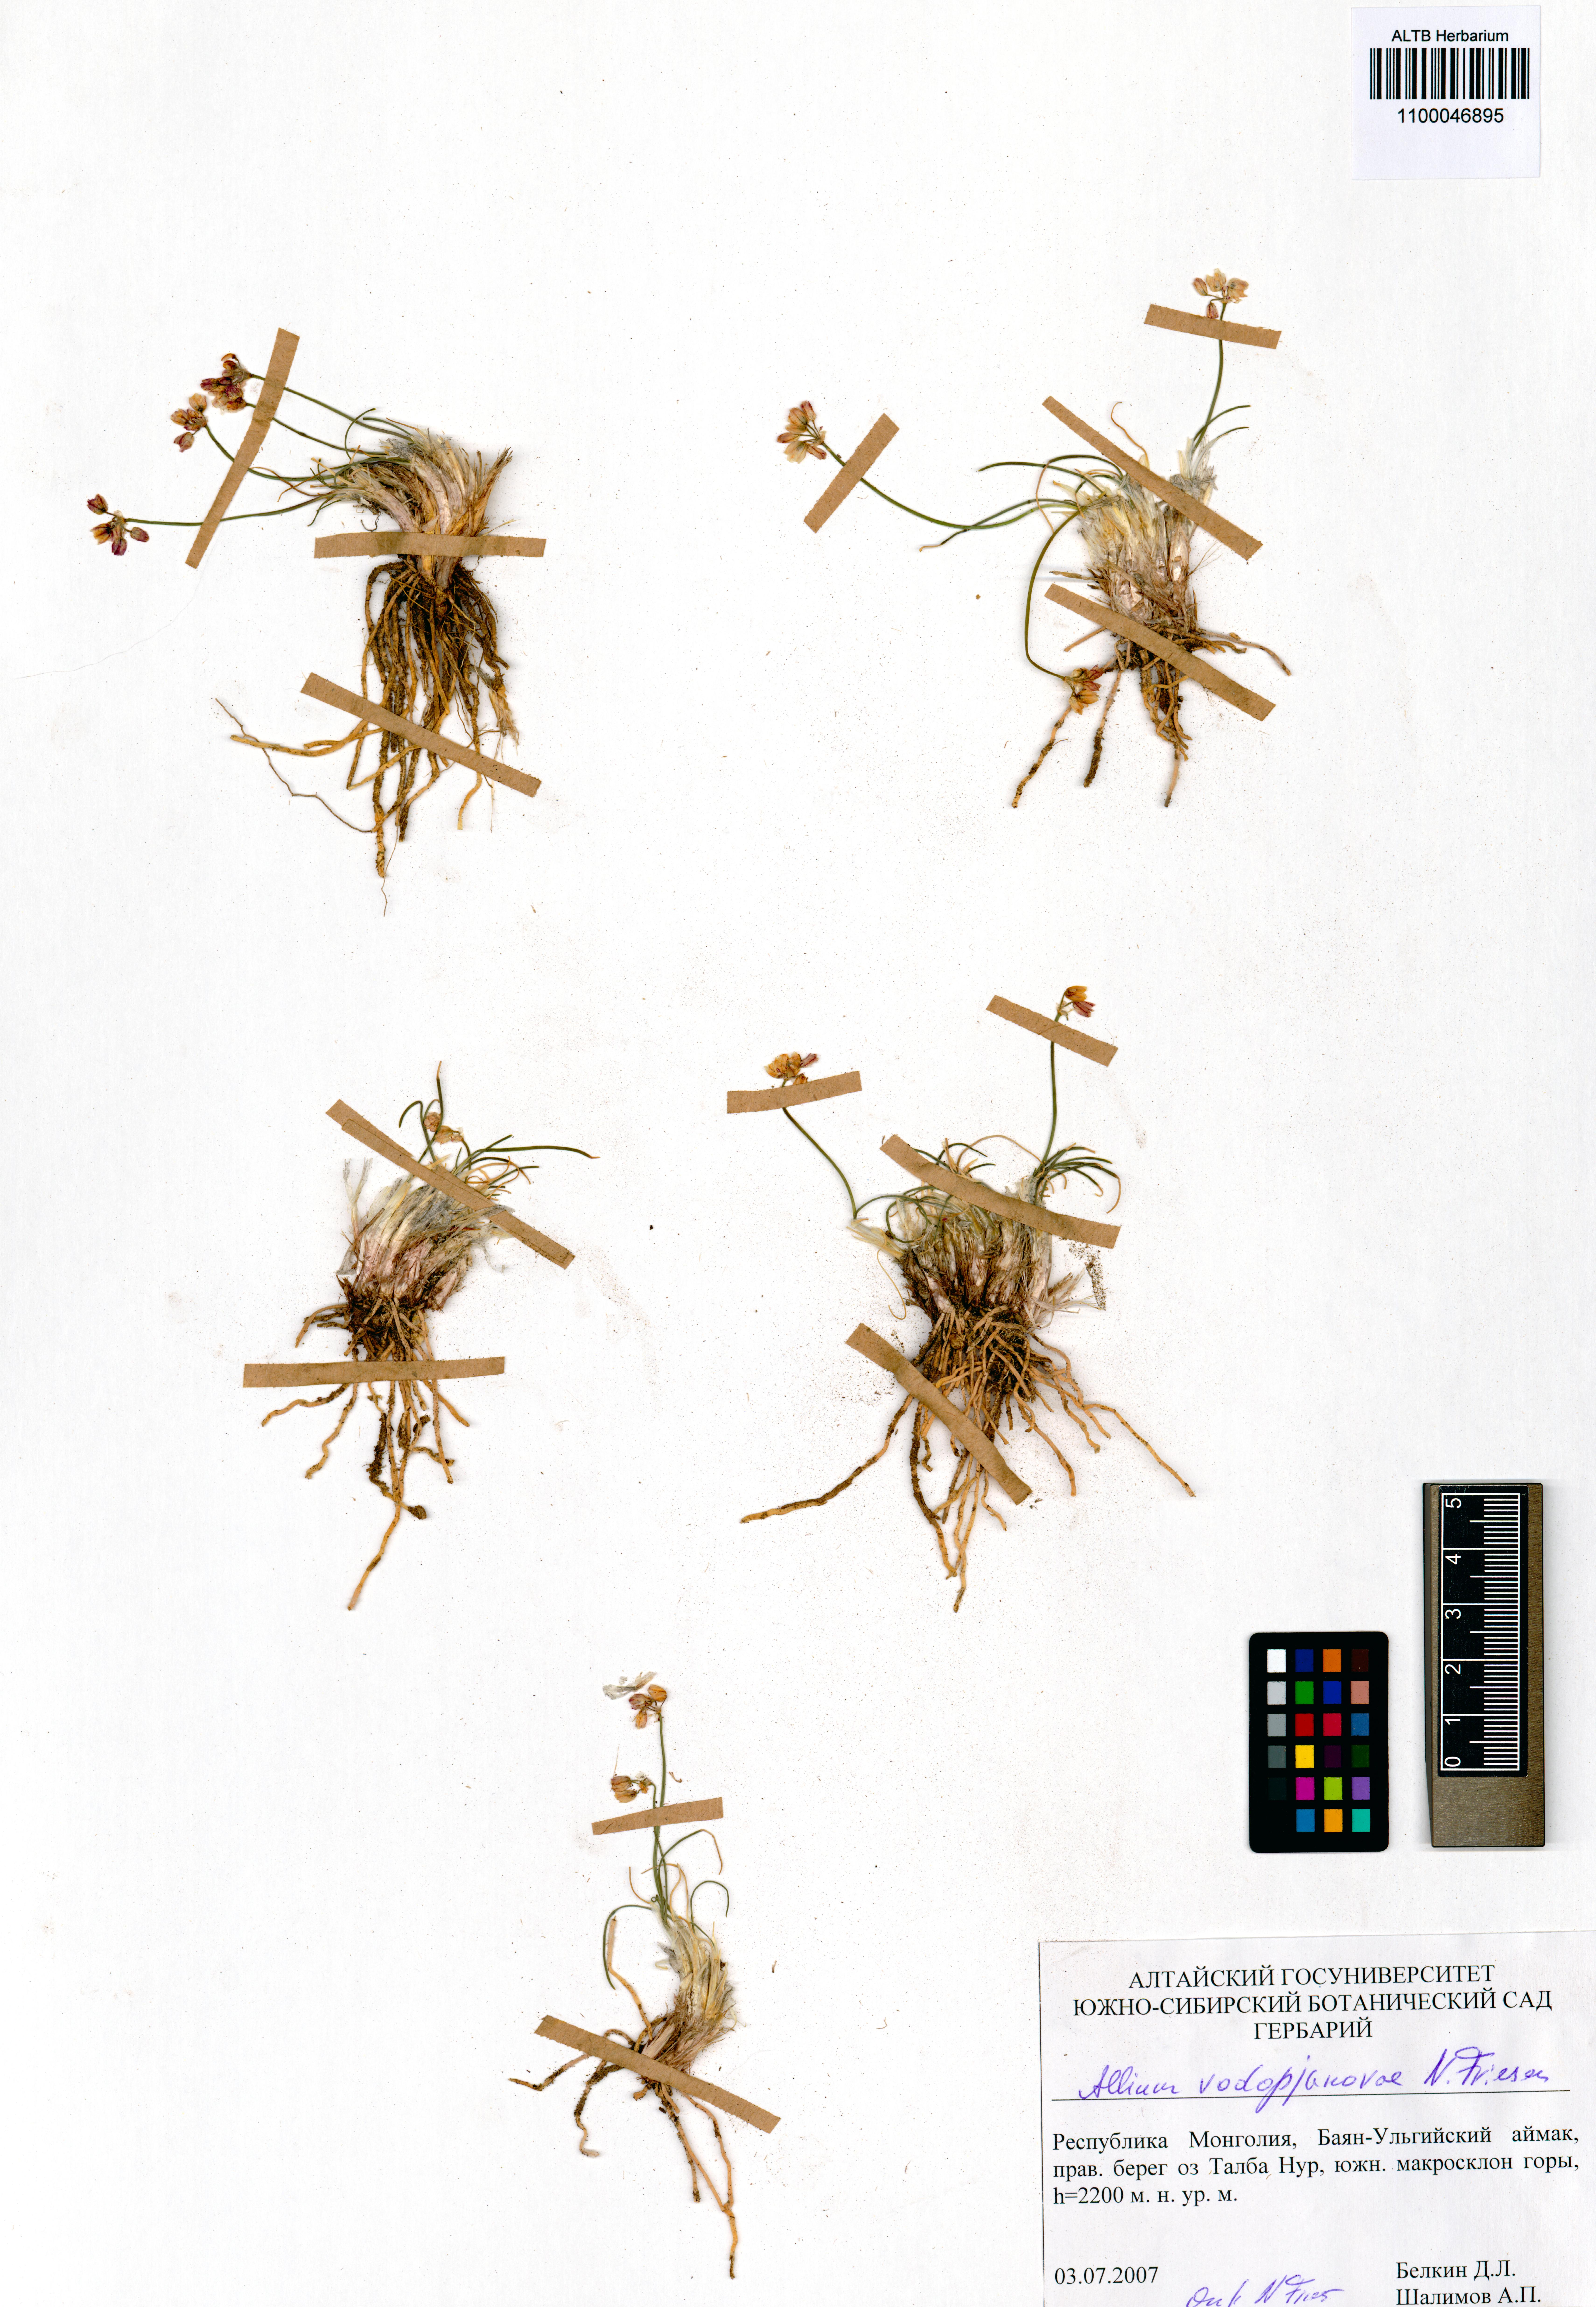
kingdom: Plantae
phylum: Tracheophyta
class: Liliopsida
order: Asparagales
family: Amaryllidaceae
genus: Allium
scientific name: Allium vodopjanovae
